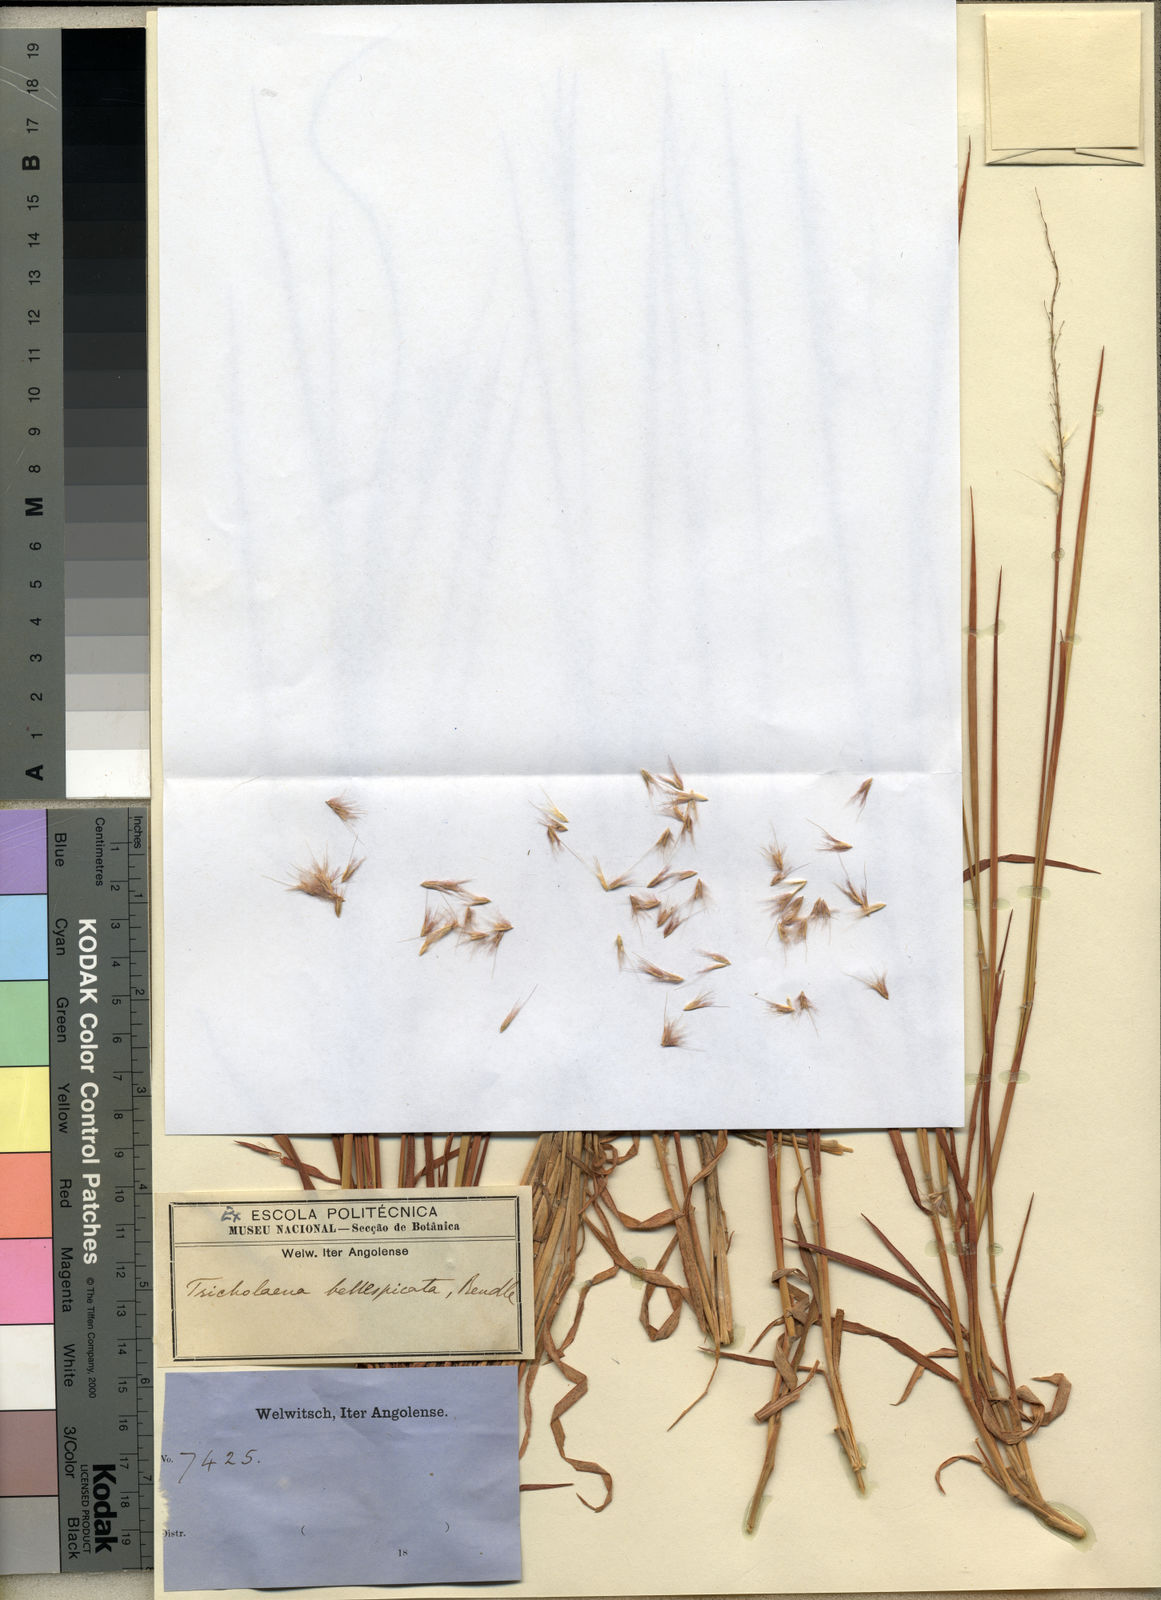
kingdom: Plantae
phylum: Tracheophyta
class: Liliopsida
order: Poales
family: Poaceae
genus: Melinis
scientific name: Melinis longiseta
